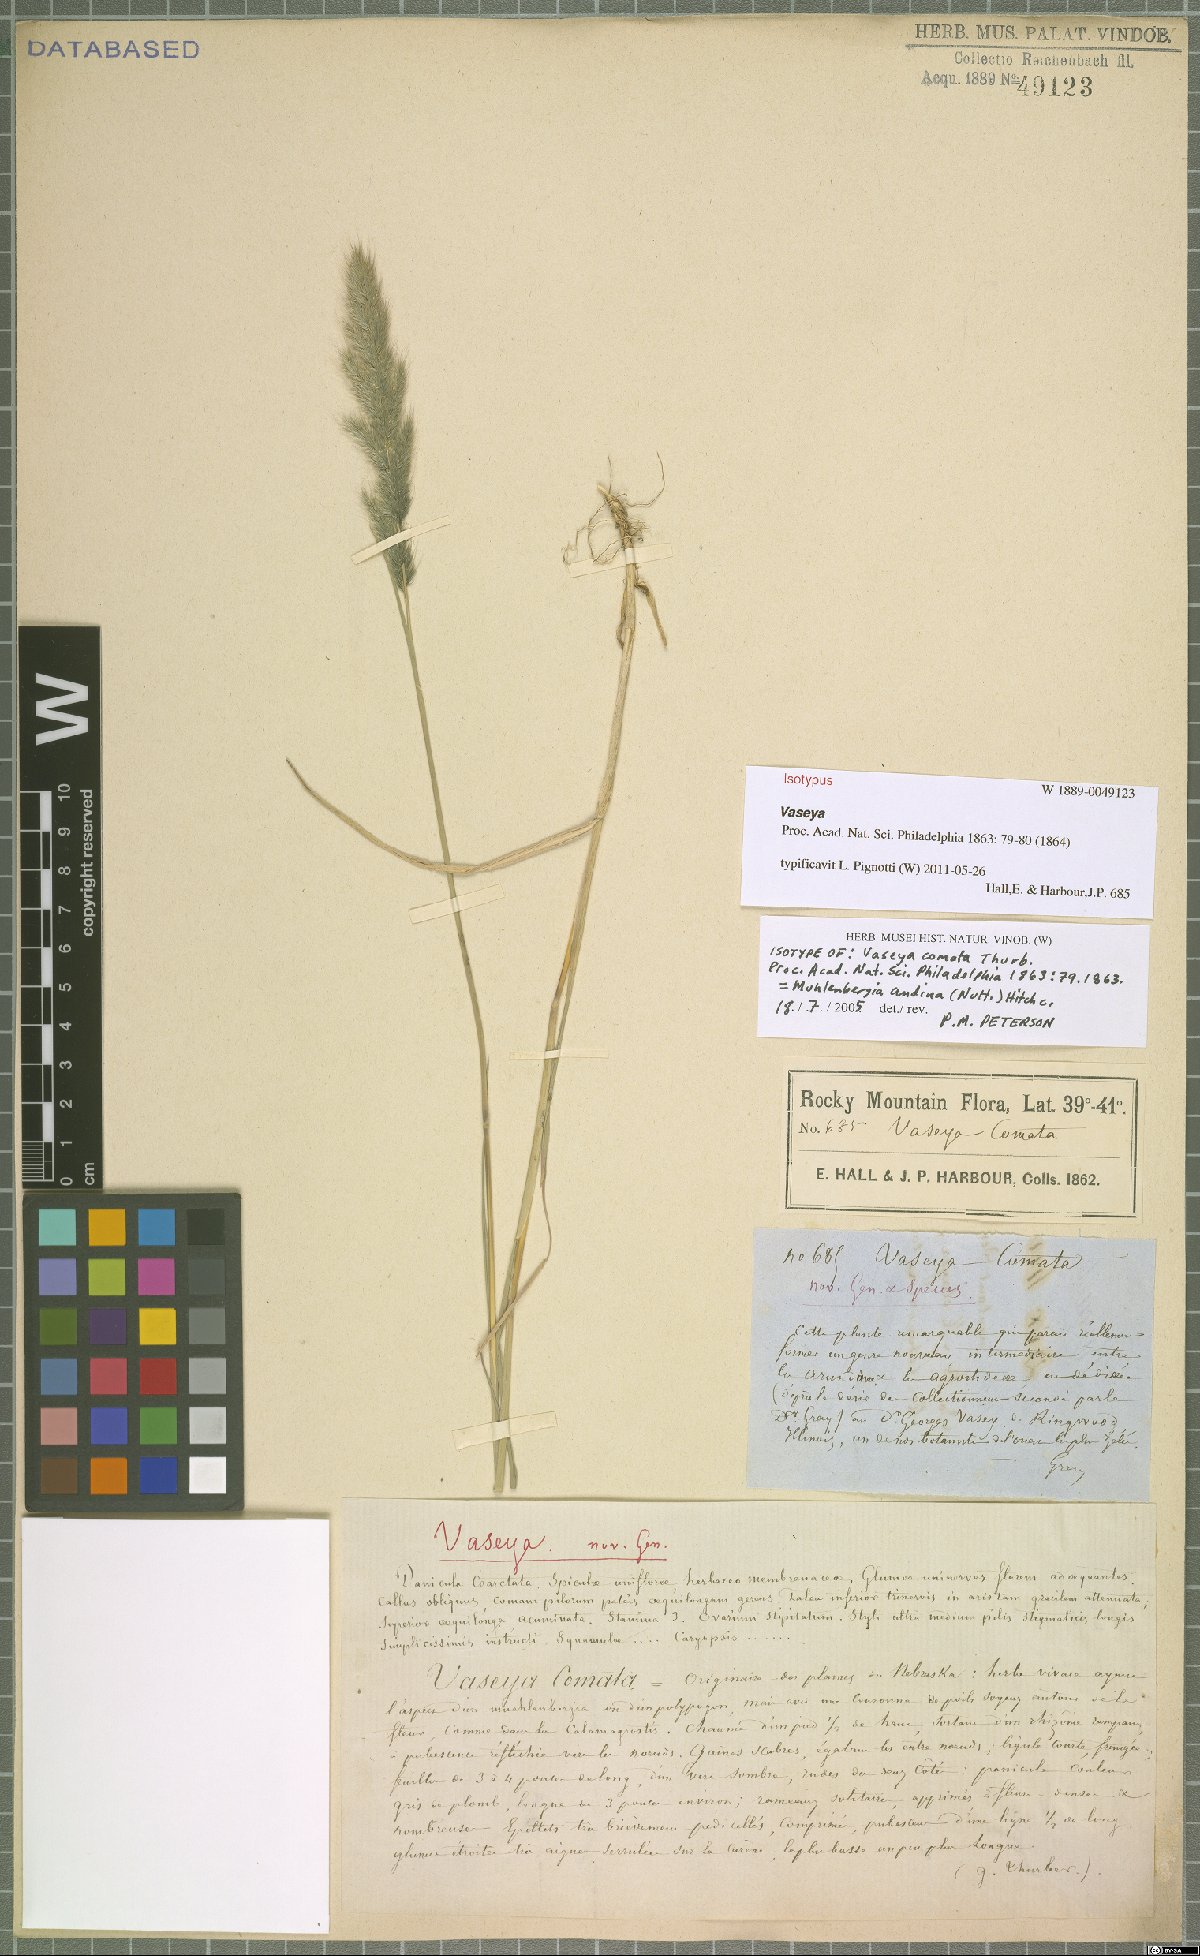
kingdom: Plantae
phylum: Tracheophyta
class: Liliopsida
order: Poales
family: Poaceae
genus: Muhlenbergia
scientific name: Muhlenbergia andina
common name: Foxtail muhly
